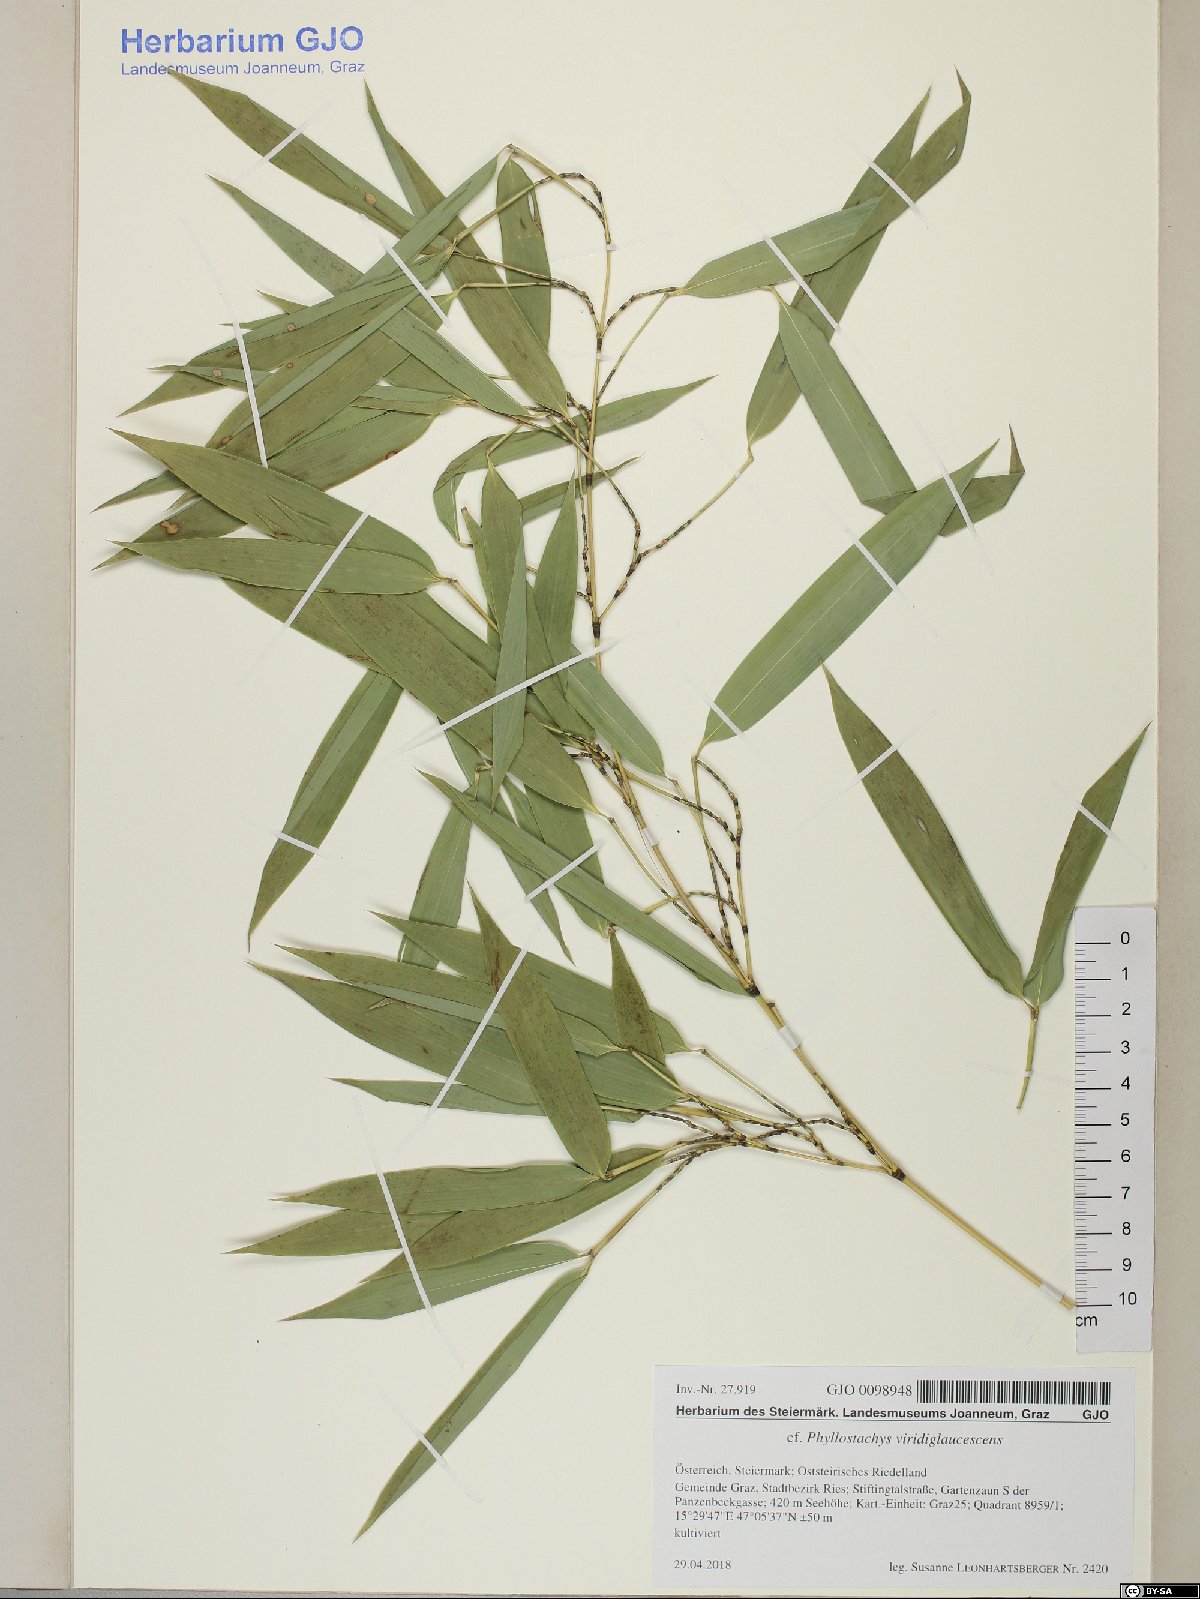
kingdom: Plantae
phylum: Tracheophyta
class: Liliopsida
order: Poales
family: Poaceae
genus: Phyllostachys
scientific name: Phyllostachys viridiglaucescens
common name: Greenwax golden bamboo
